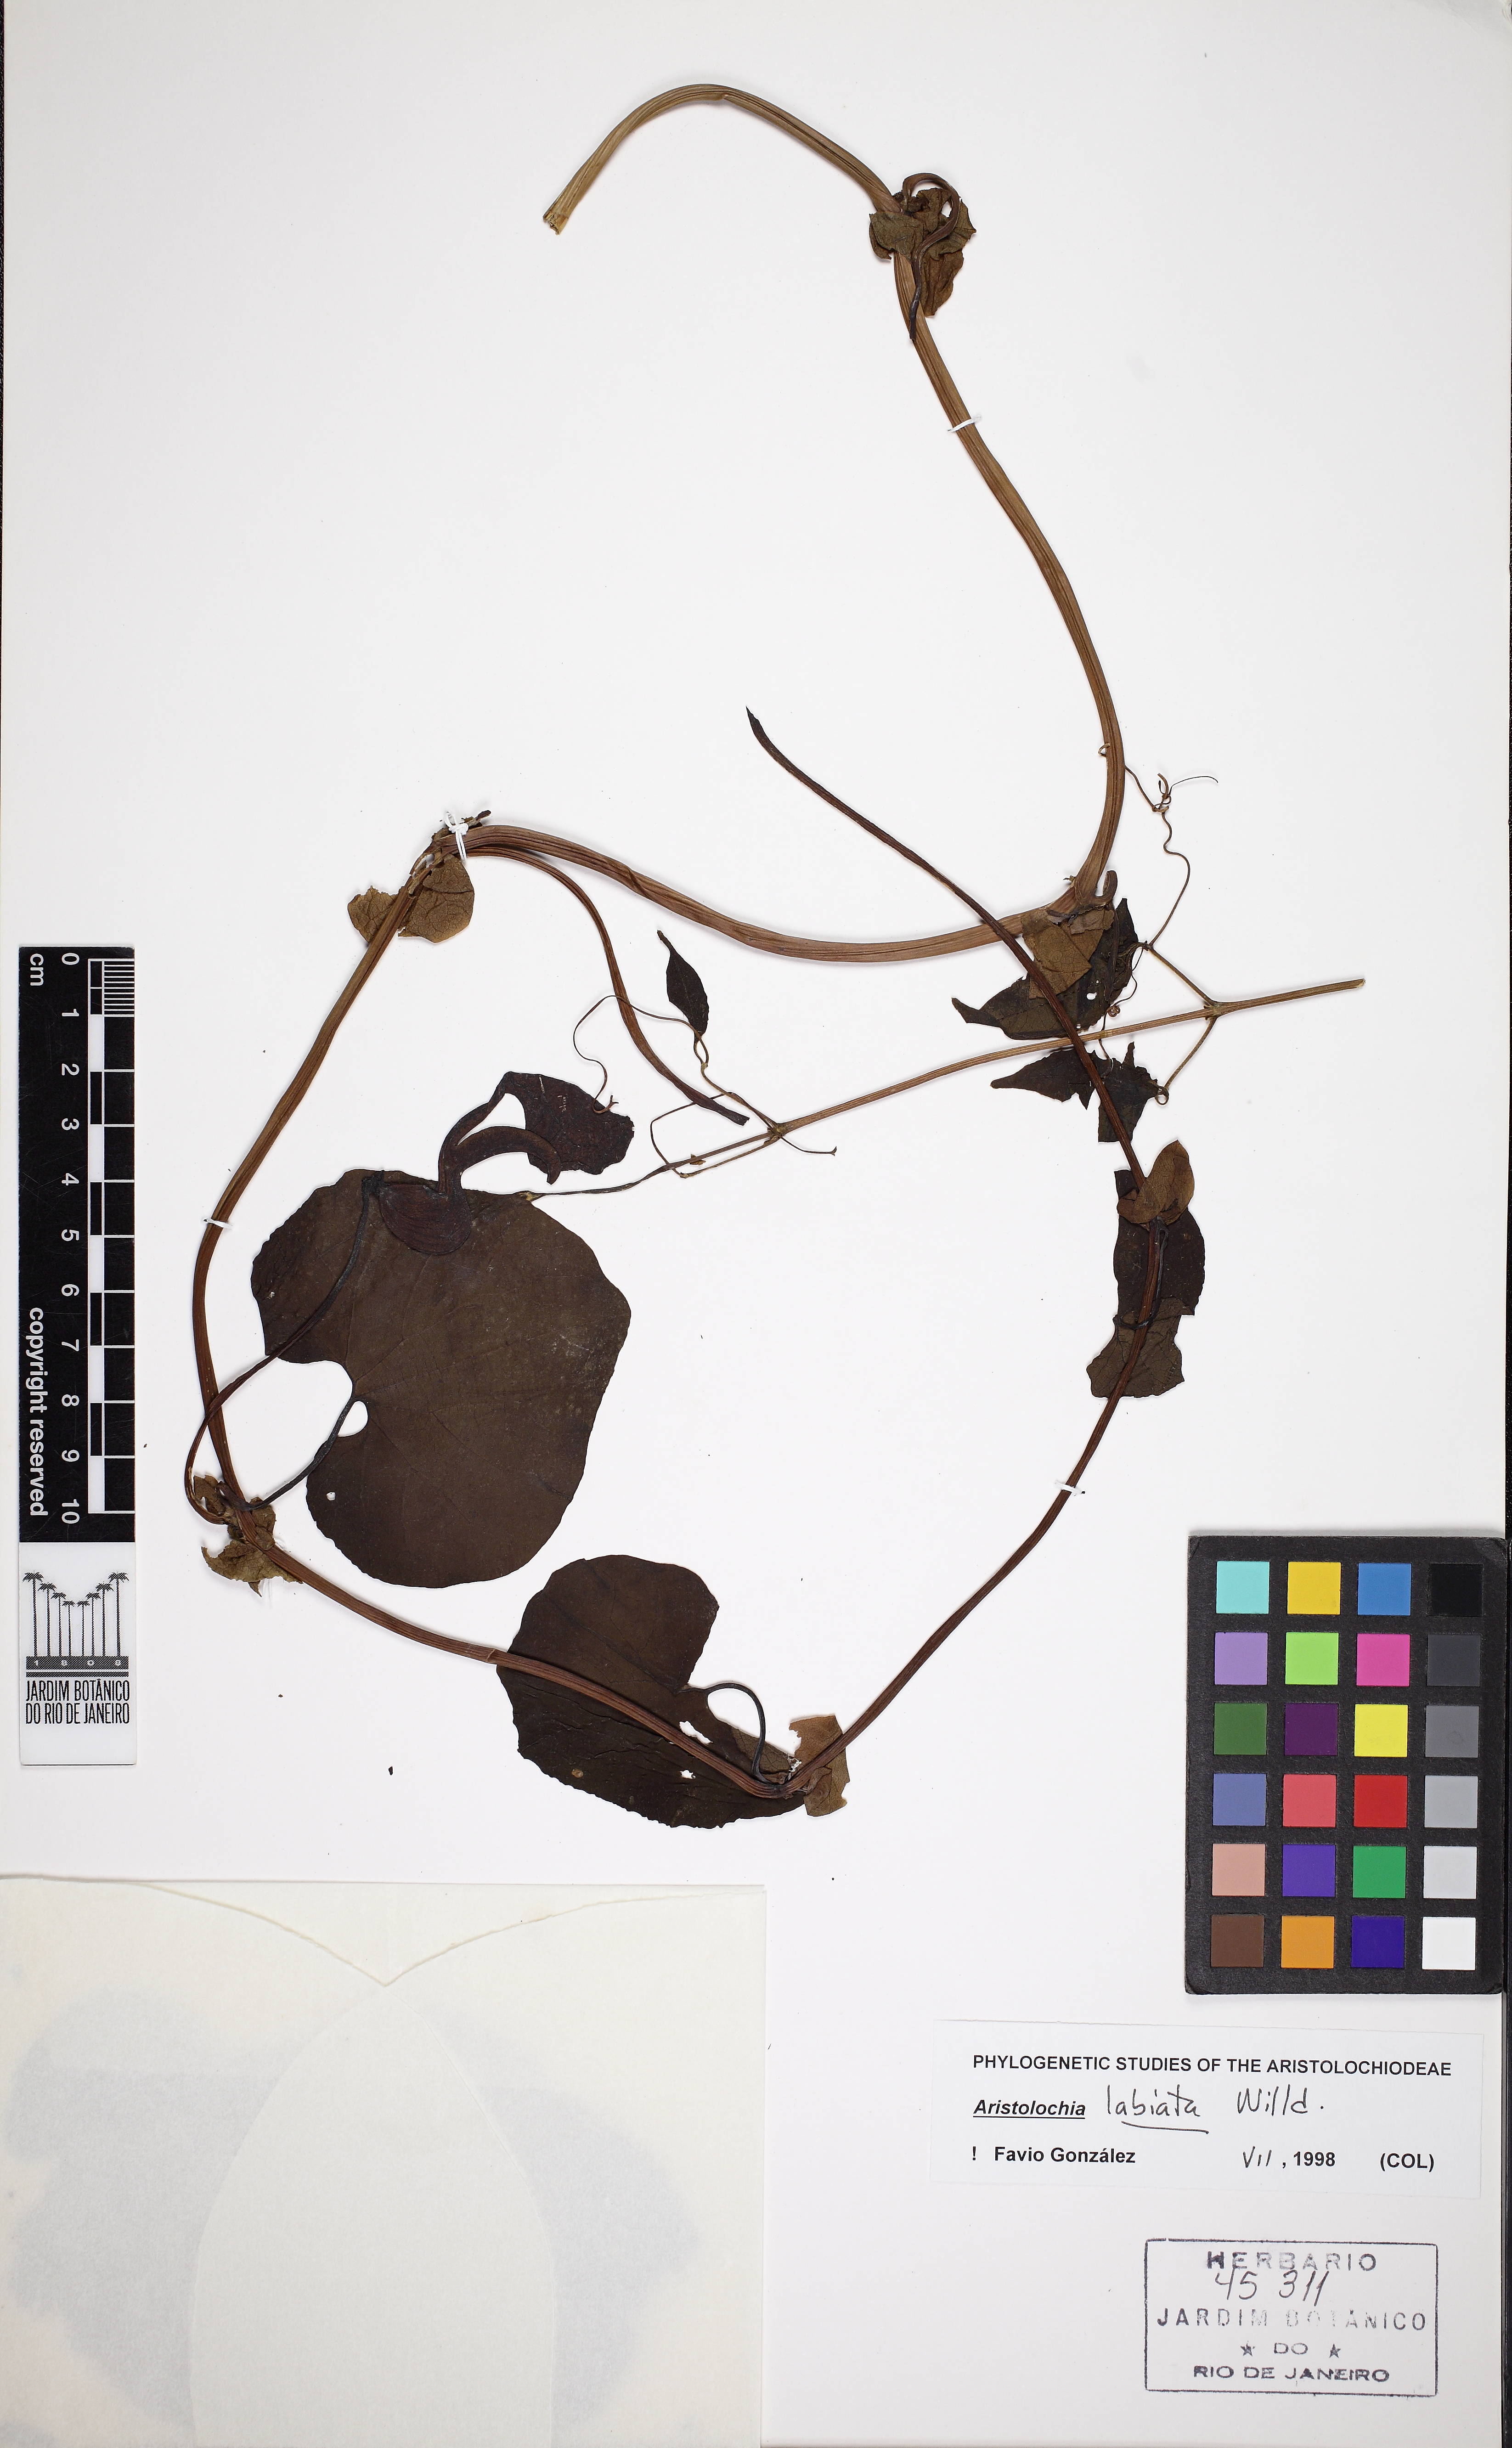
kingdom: Plantae
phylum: Tracheophyta
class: Magnoliopsida
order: Piperales
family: Aristolochiaceae
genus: Aristolochia
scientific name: Aristolochia labiata
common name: Mottled dutchman's pipe
